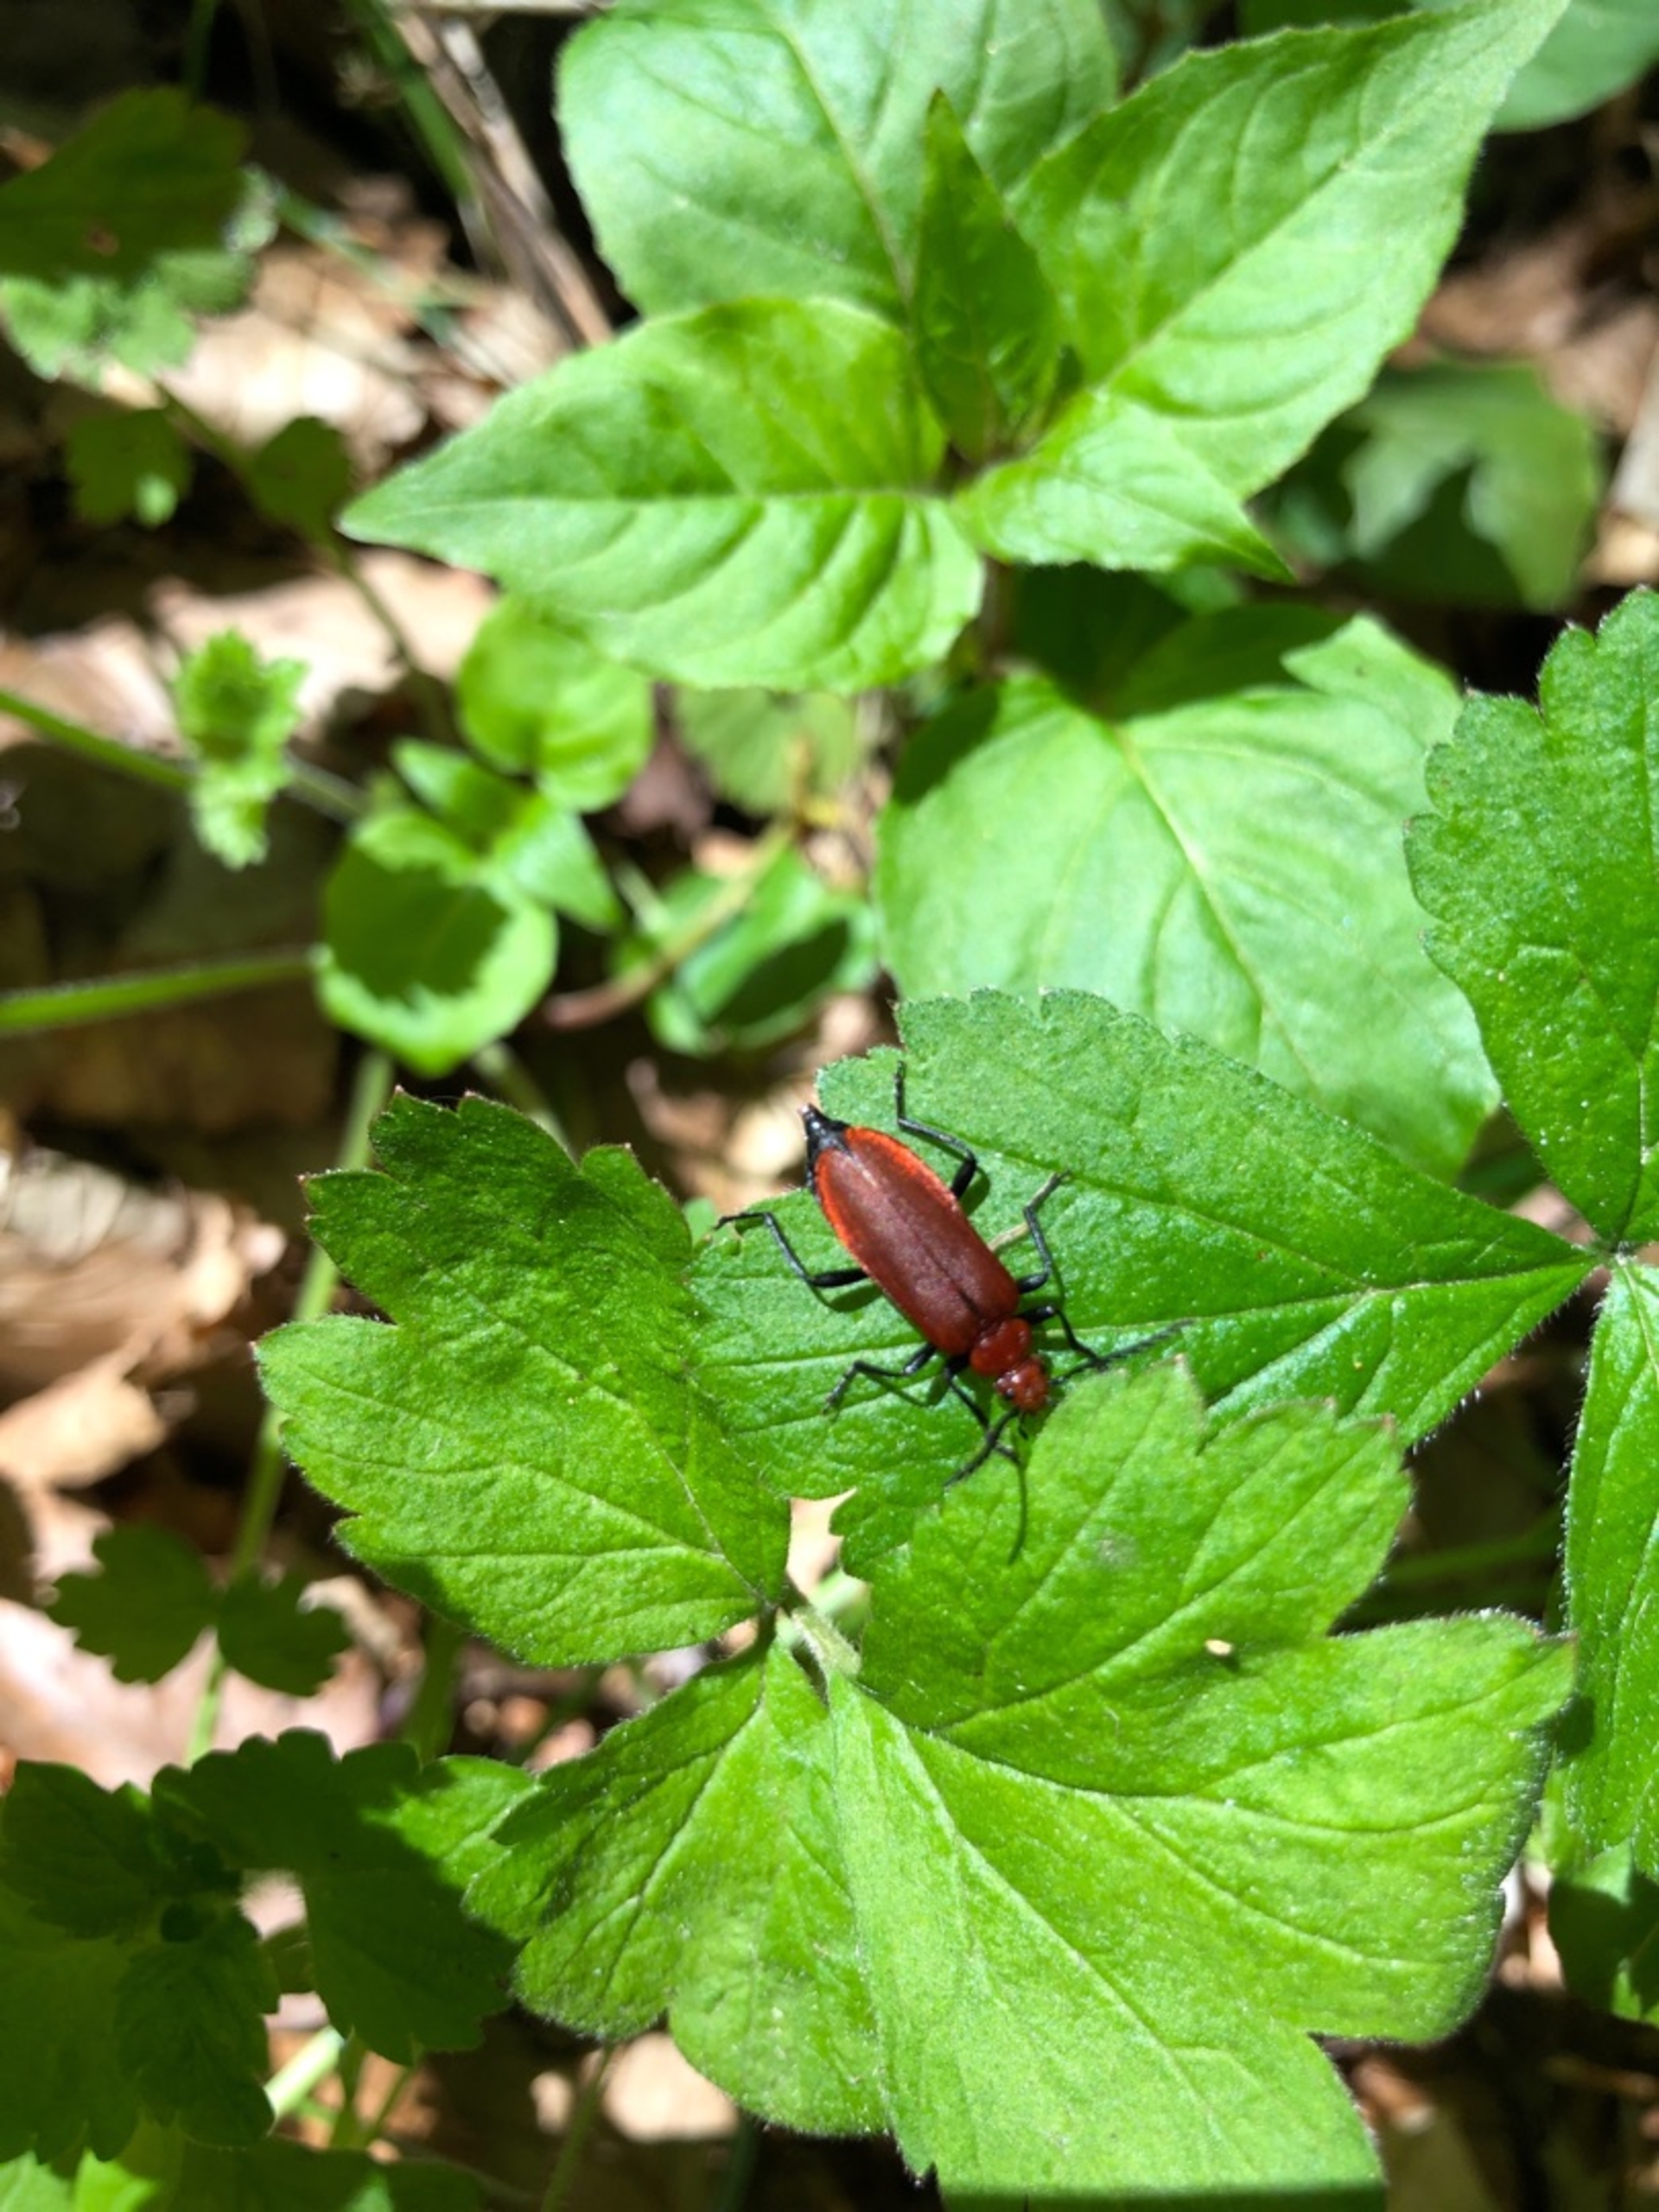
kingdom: Animalia
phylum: Arthropoda
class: Insecta
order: Coleoptera
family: Pyrochroidae
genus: Pyrochroa
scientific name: Pyrochroa serraticornis
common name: Rødhovedet kardinalbille
